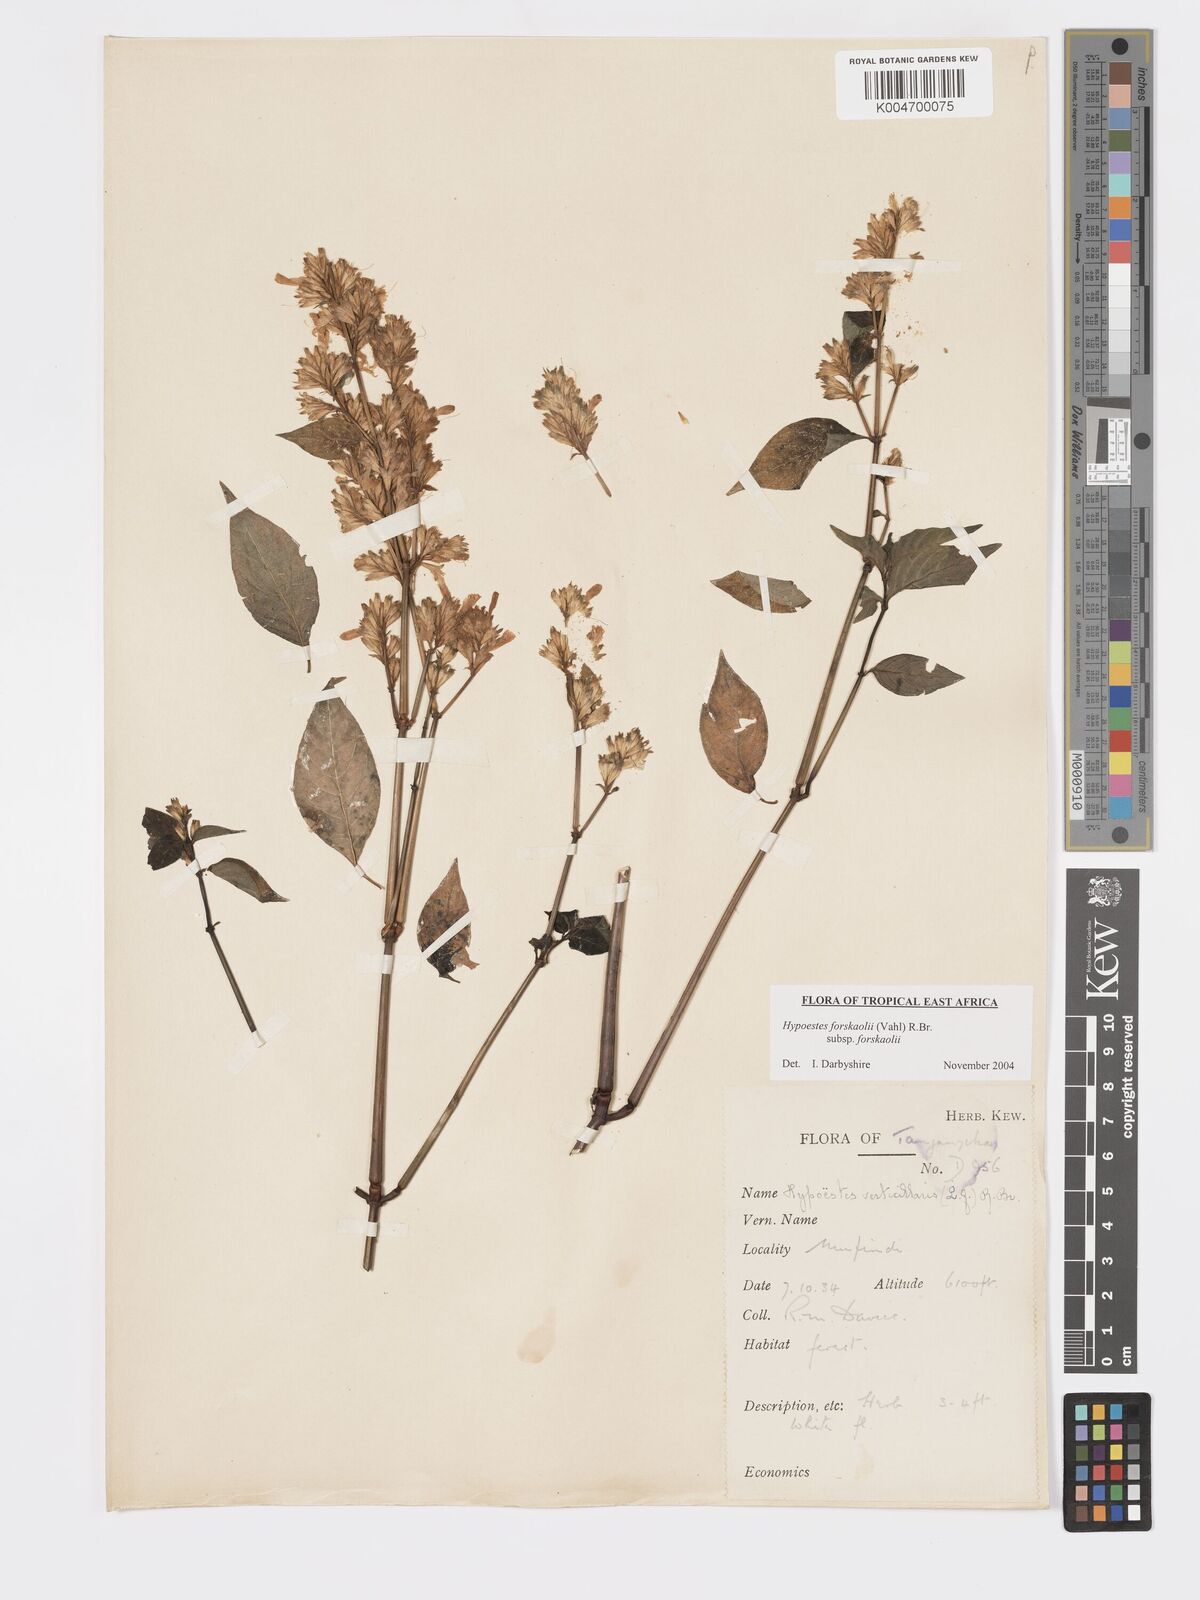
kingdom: Plantae
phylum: Tracheophyta
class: Magnoliopsida
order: Lamiales
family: Acanthaceae
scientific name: Acanthaceae
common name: Acanthaceae
